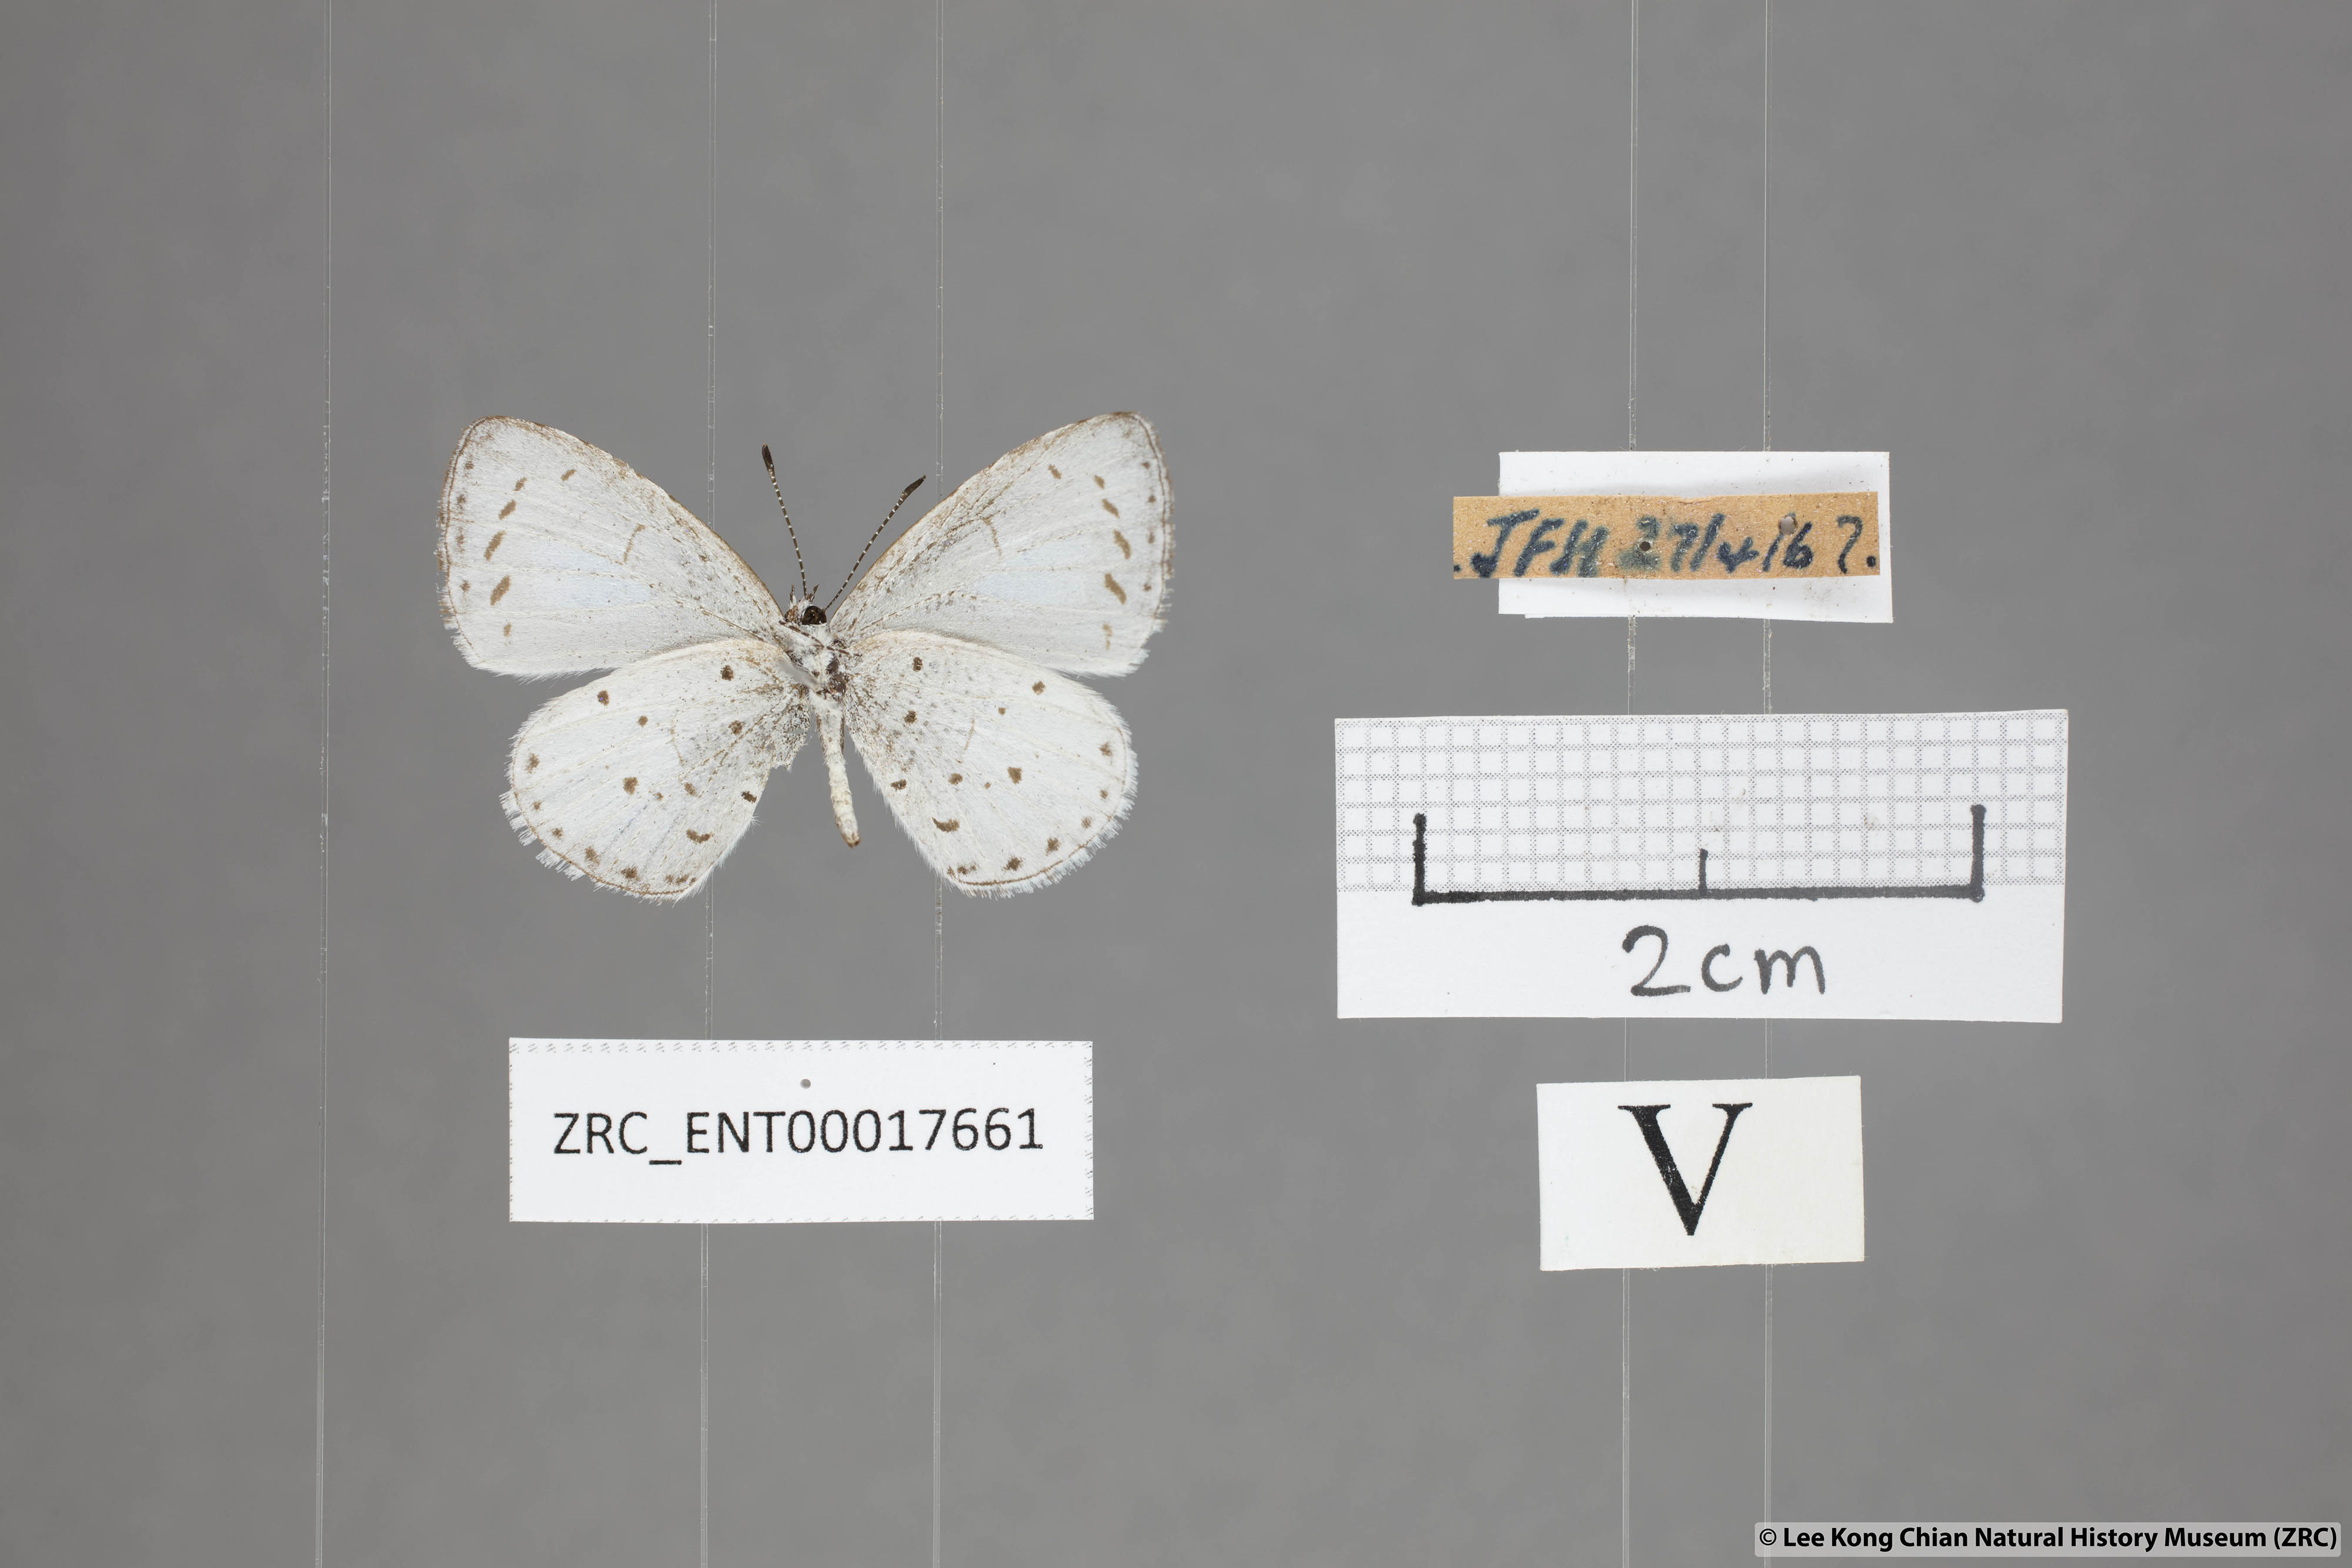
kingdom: Animalia
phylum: Arthropoda
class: Insecta
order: Lepidoptera
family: Lycaenidae
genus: Udara
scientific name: Udara albocaerulea
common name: Albocerulean
